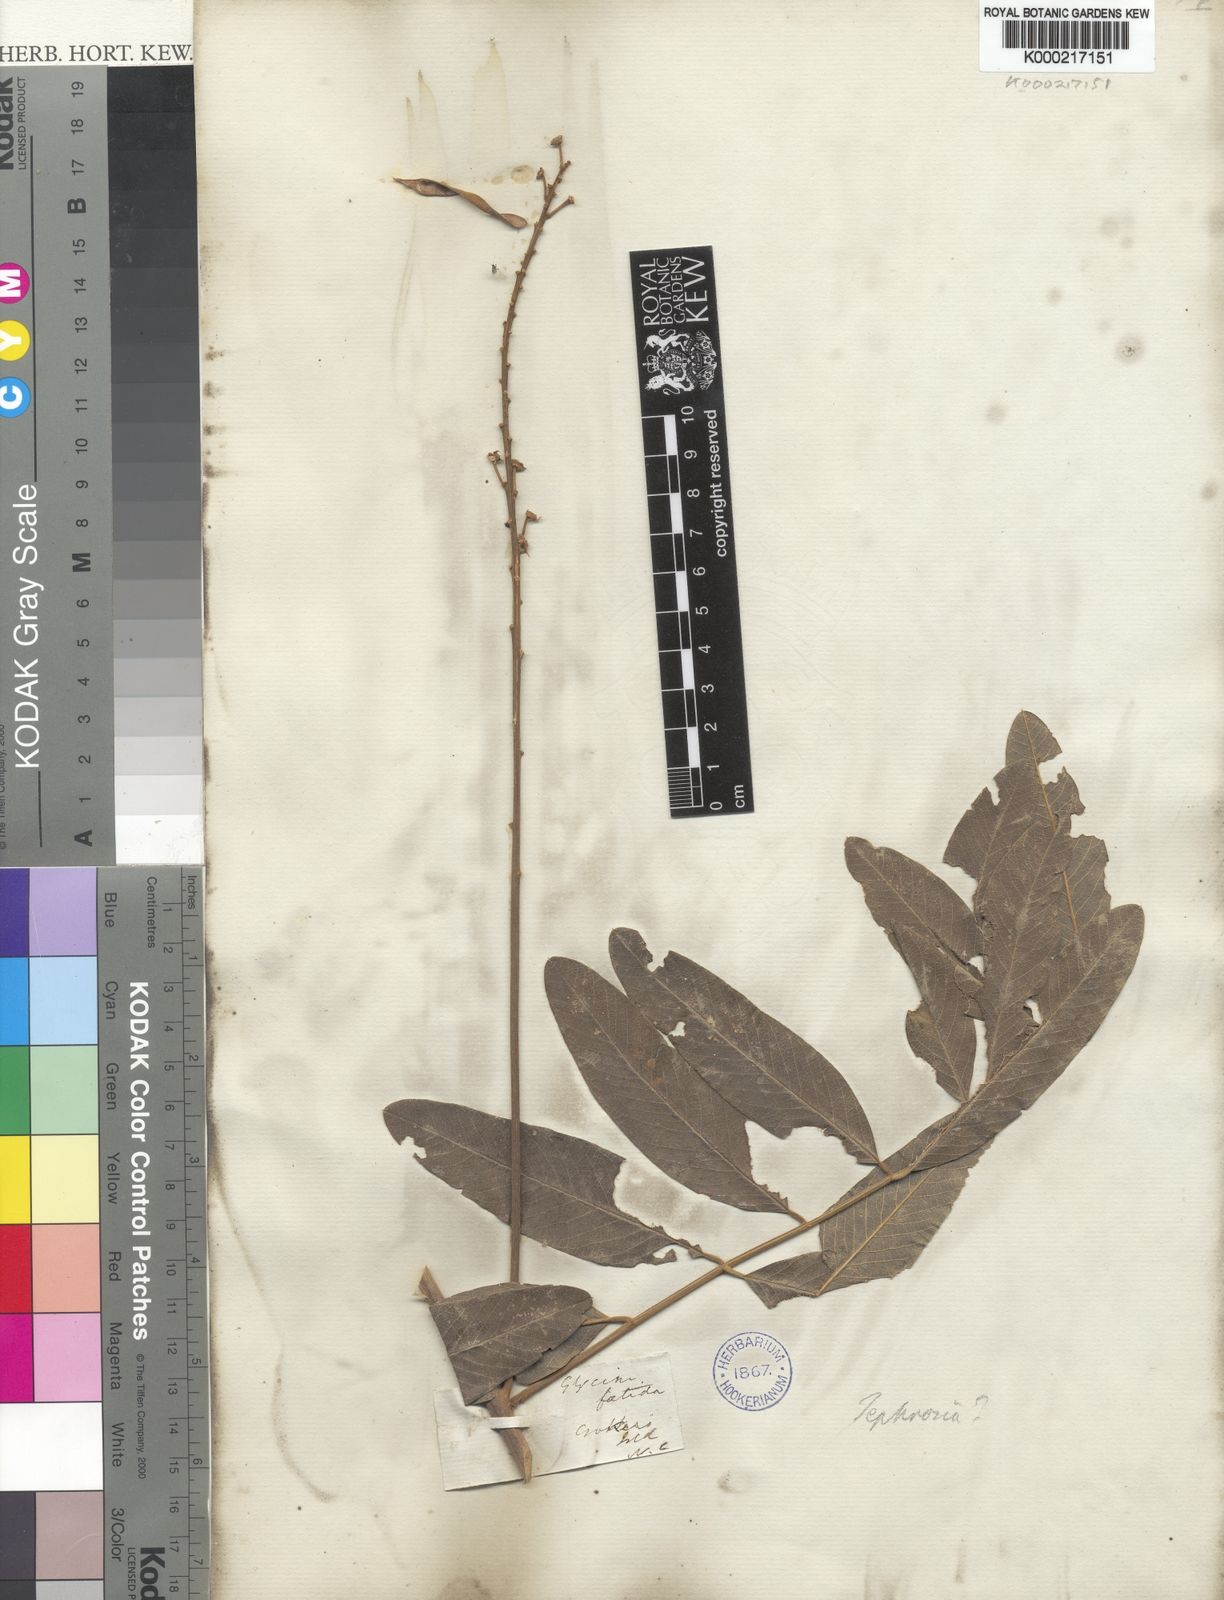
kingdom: Plantae
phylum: Tracheophyta
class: Magnoliopsida
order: Fabales
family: Fabaceae
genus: Tephrosia
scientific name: Tephrosia
